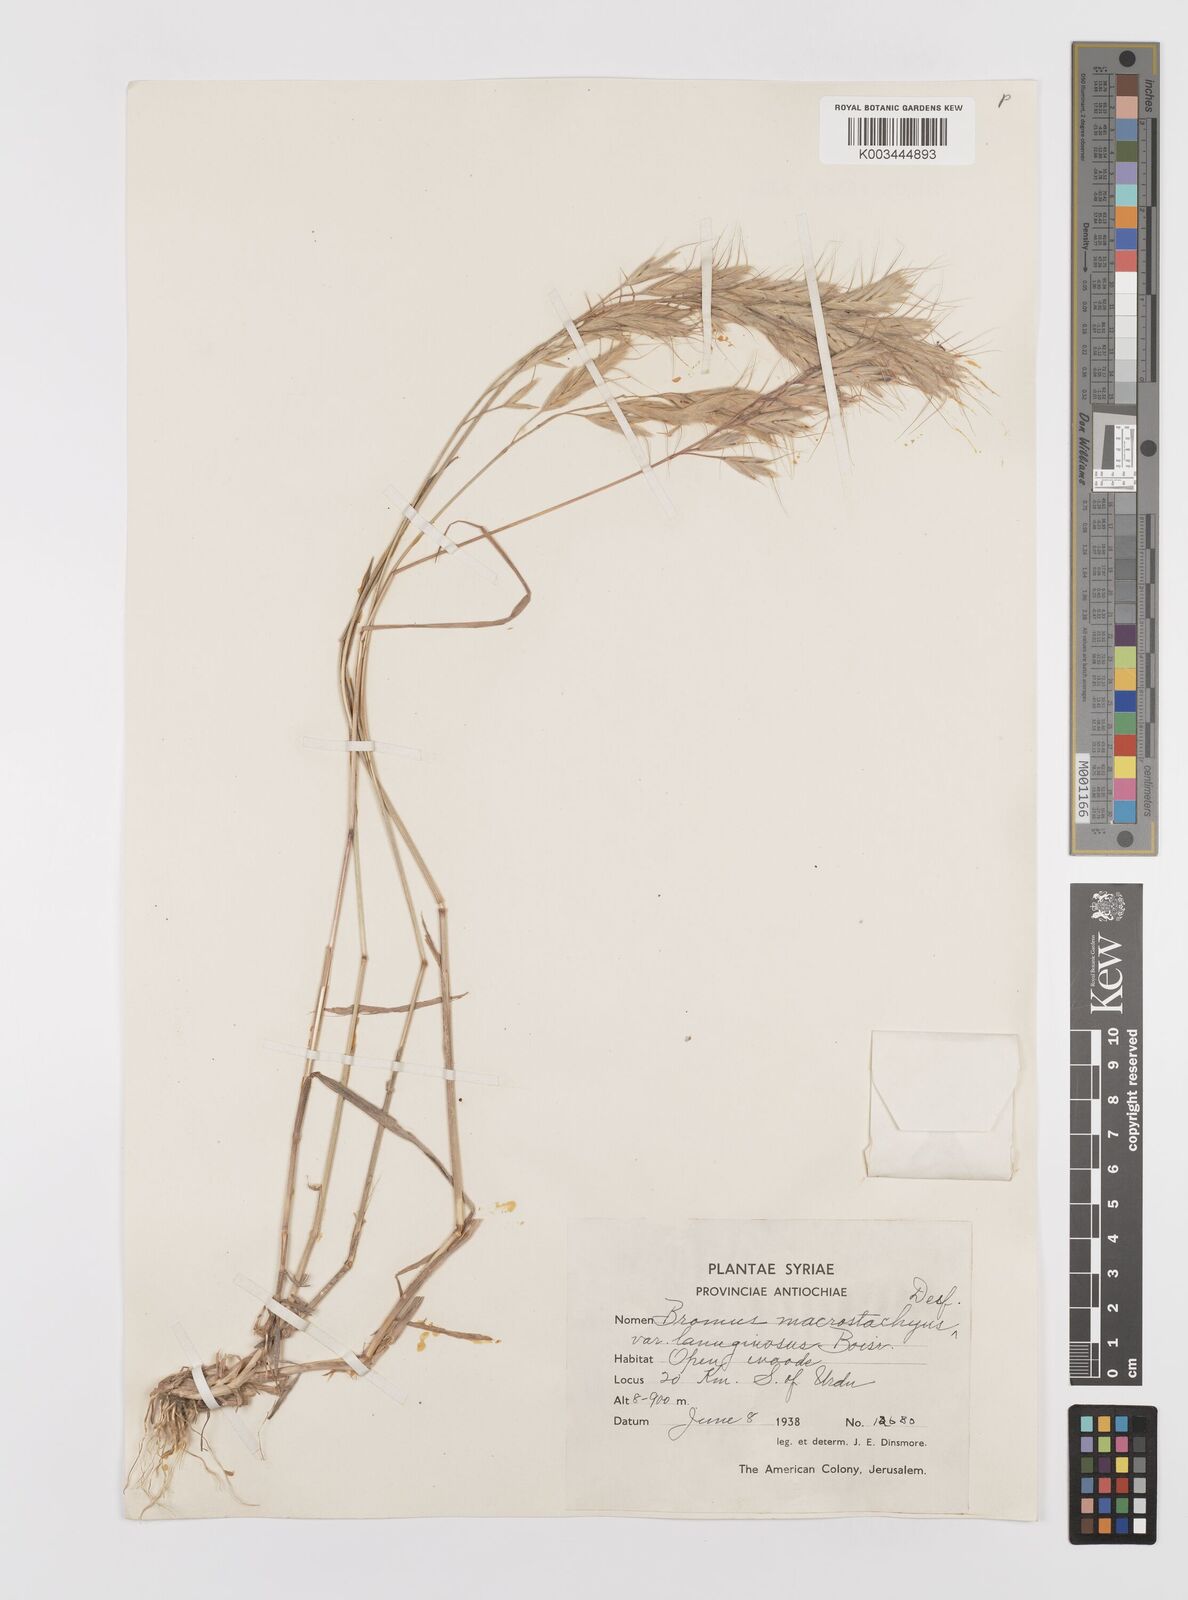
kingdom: Plantae
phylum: Tracheophyta
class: Liliopsida
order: Poales
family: Poaceae
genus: Bromus
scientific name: Bromus lanceolatus
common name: Mediterranean brome
